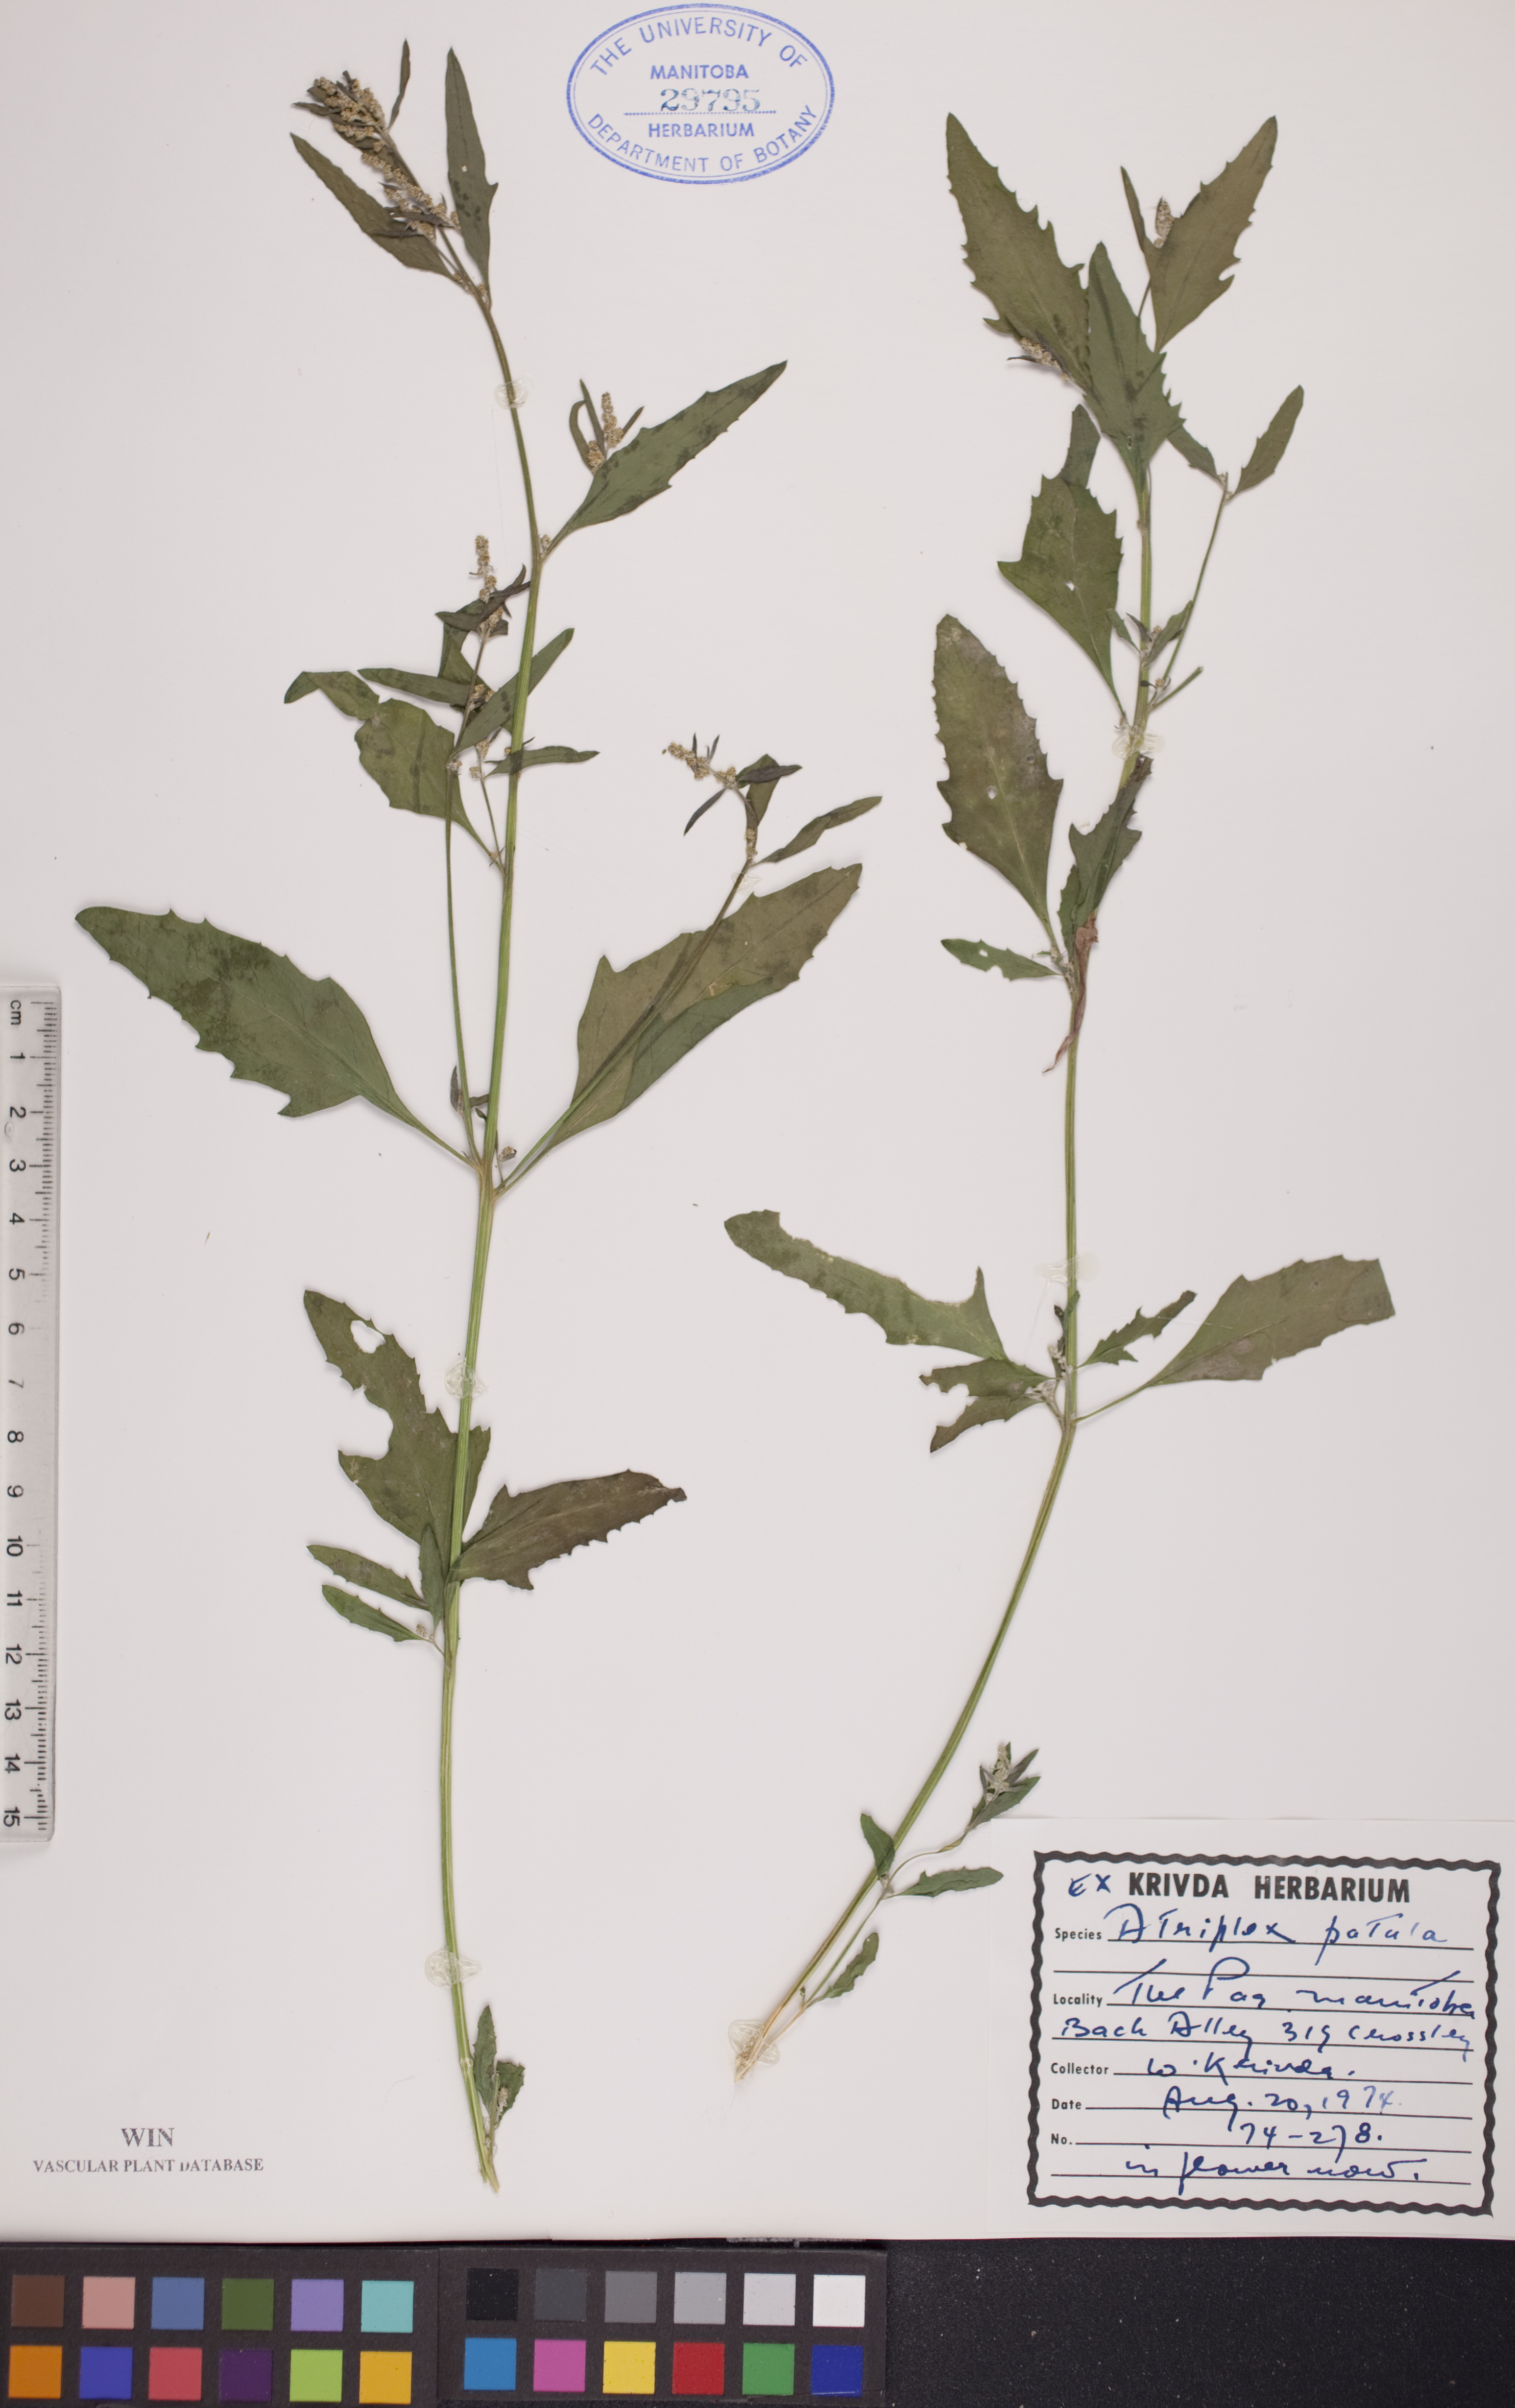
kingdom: Plantae
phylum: Tracheophyta
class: Magnoliopsida
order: Caryophyllales
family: Amaranthaceae
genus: Atriplex
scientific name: Atriplex patula
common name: Common orache
